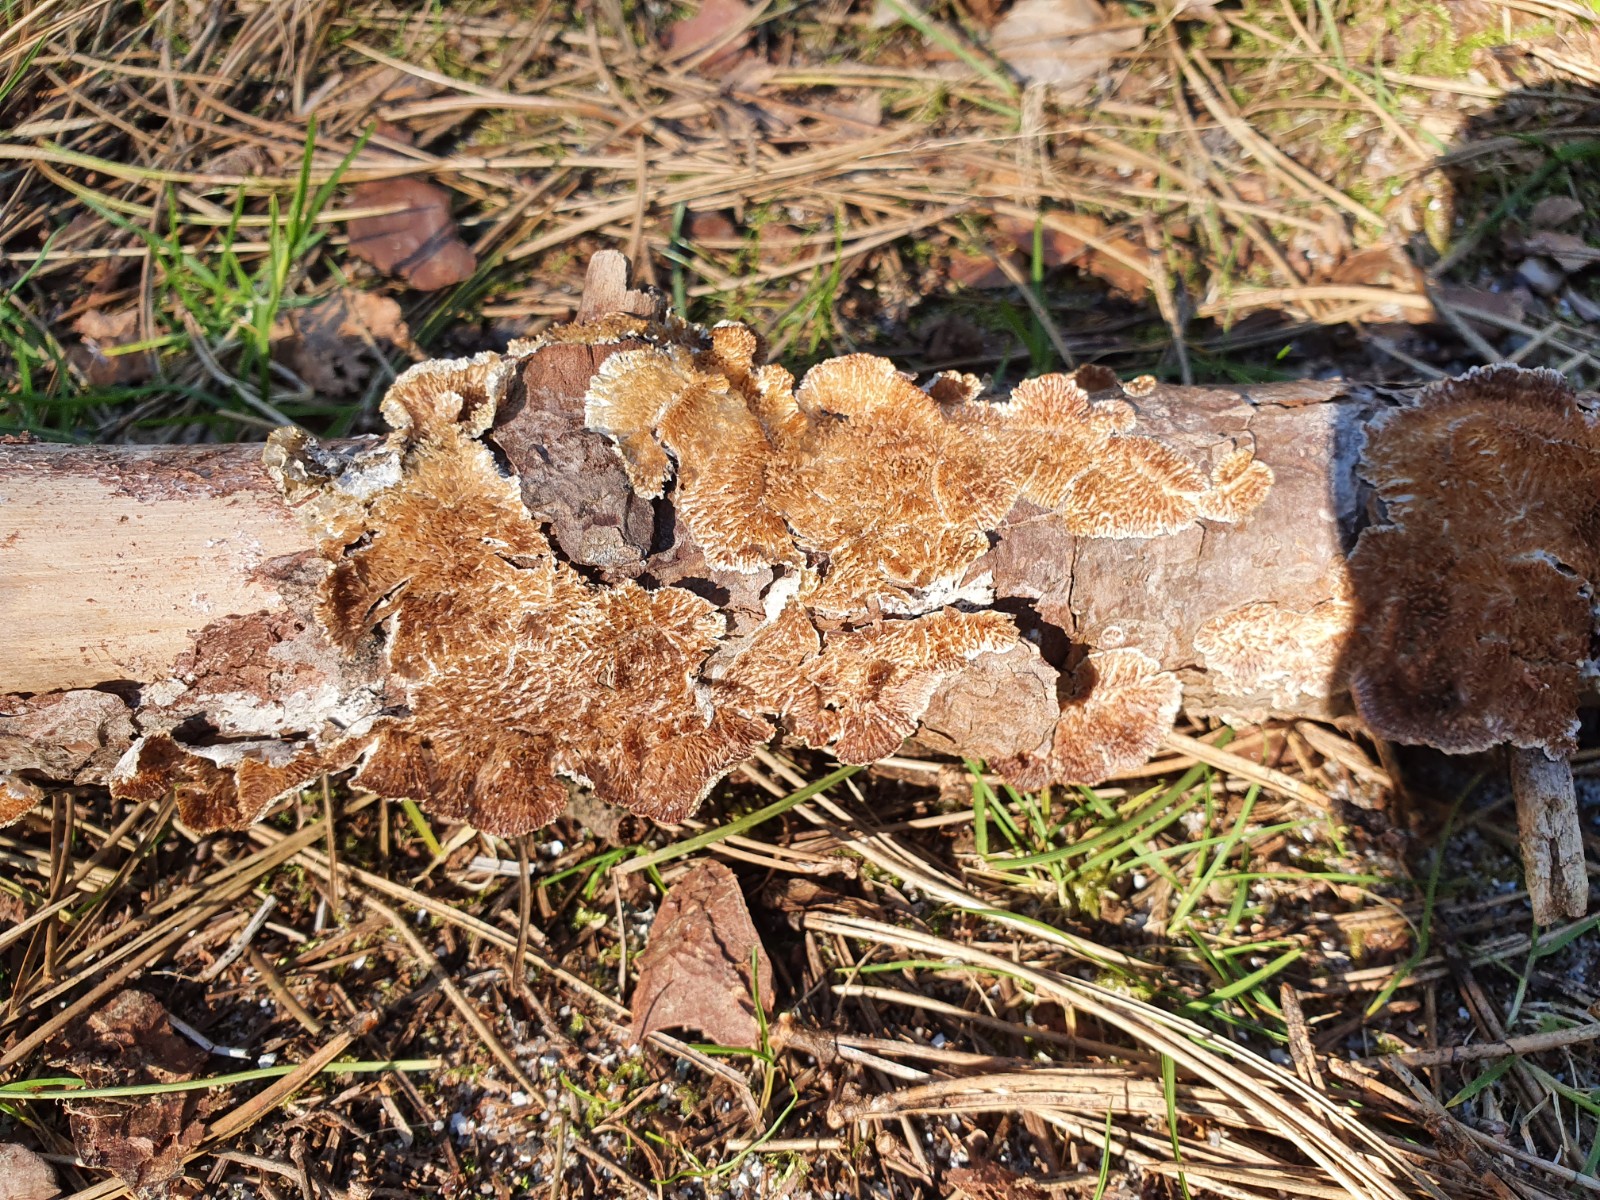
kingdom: Fungi
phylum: Basidiomycota
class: Agaricomycetes
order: Hymenochaetales
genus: Trichaptum
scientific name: Trichaptum fuscoviolaceum
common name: tandet violporesvamp
